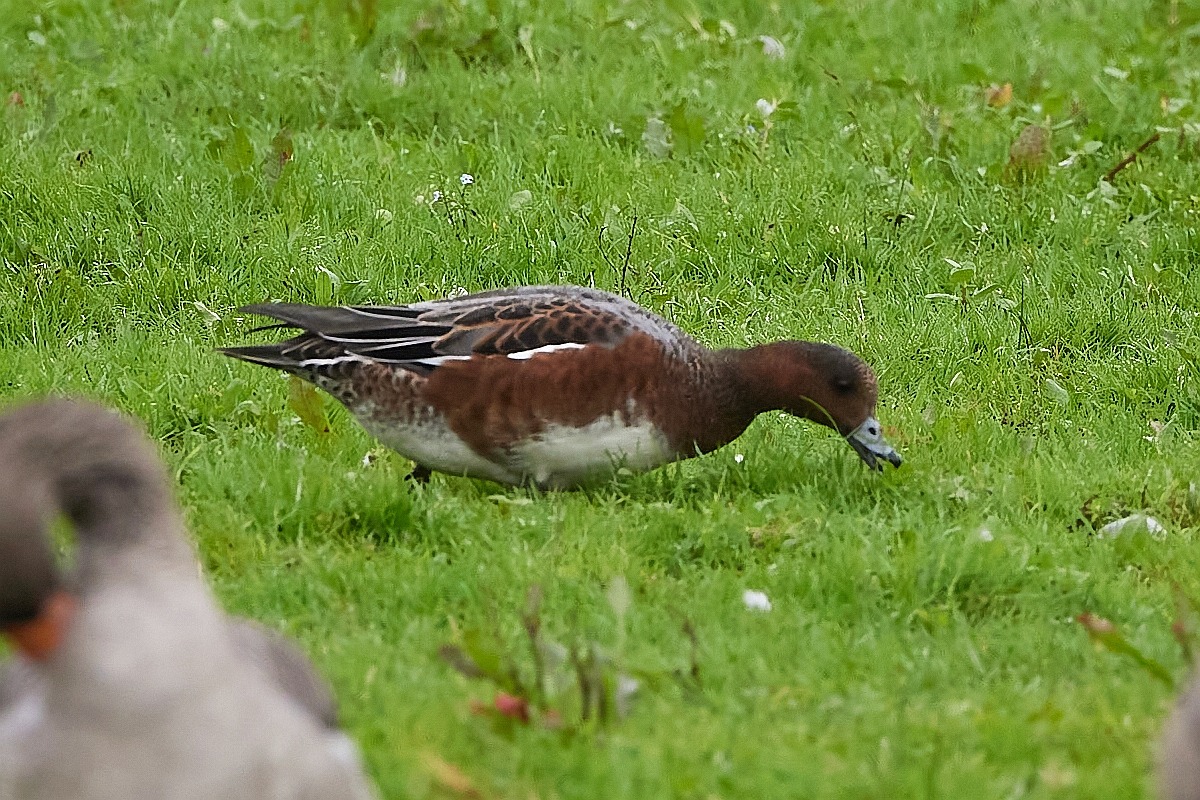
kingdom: Animalia
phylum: Chordata
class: Aves
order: Anseriformes
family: Anatidae
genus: Mareca
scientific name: Mareca penelope
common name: Pibeand
